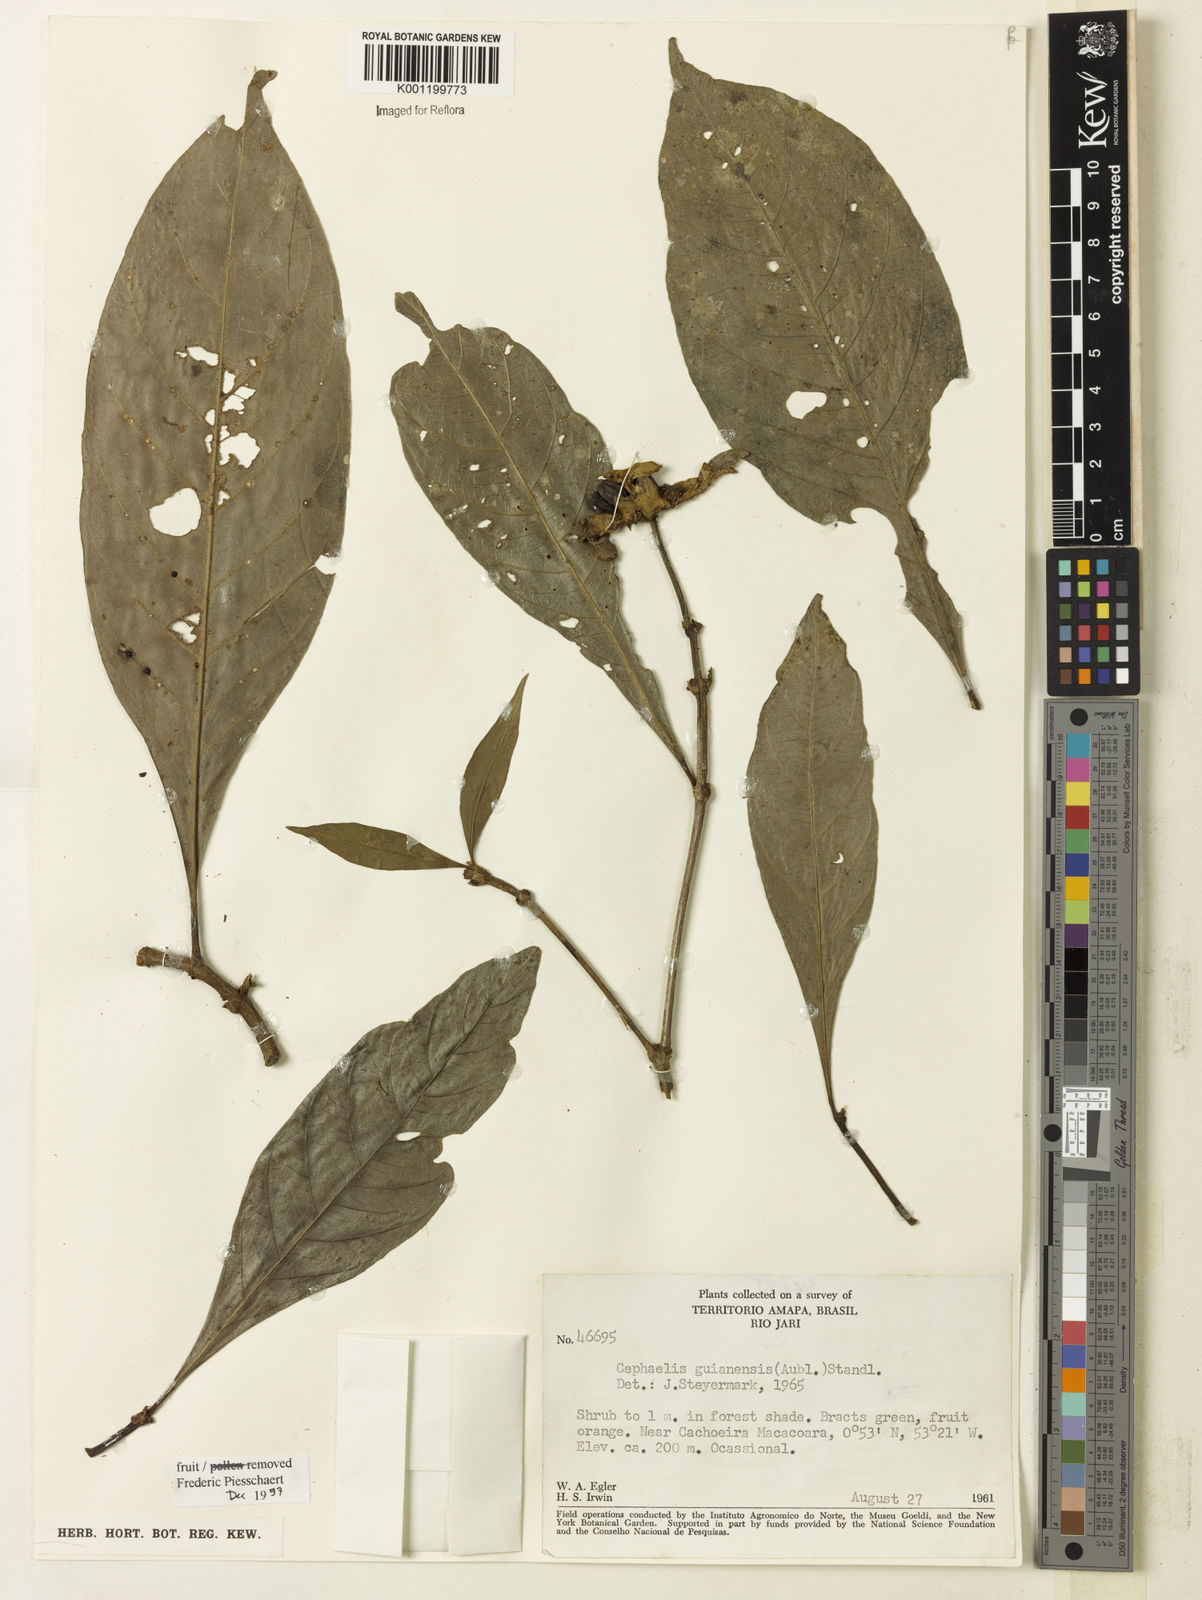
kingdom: Plantae
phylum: Tracheophyta
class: Magnoliopsida
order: Gentianales
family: Rubiaceae
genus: Carapichea
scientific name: Carapichea guianensis
